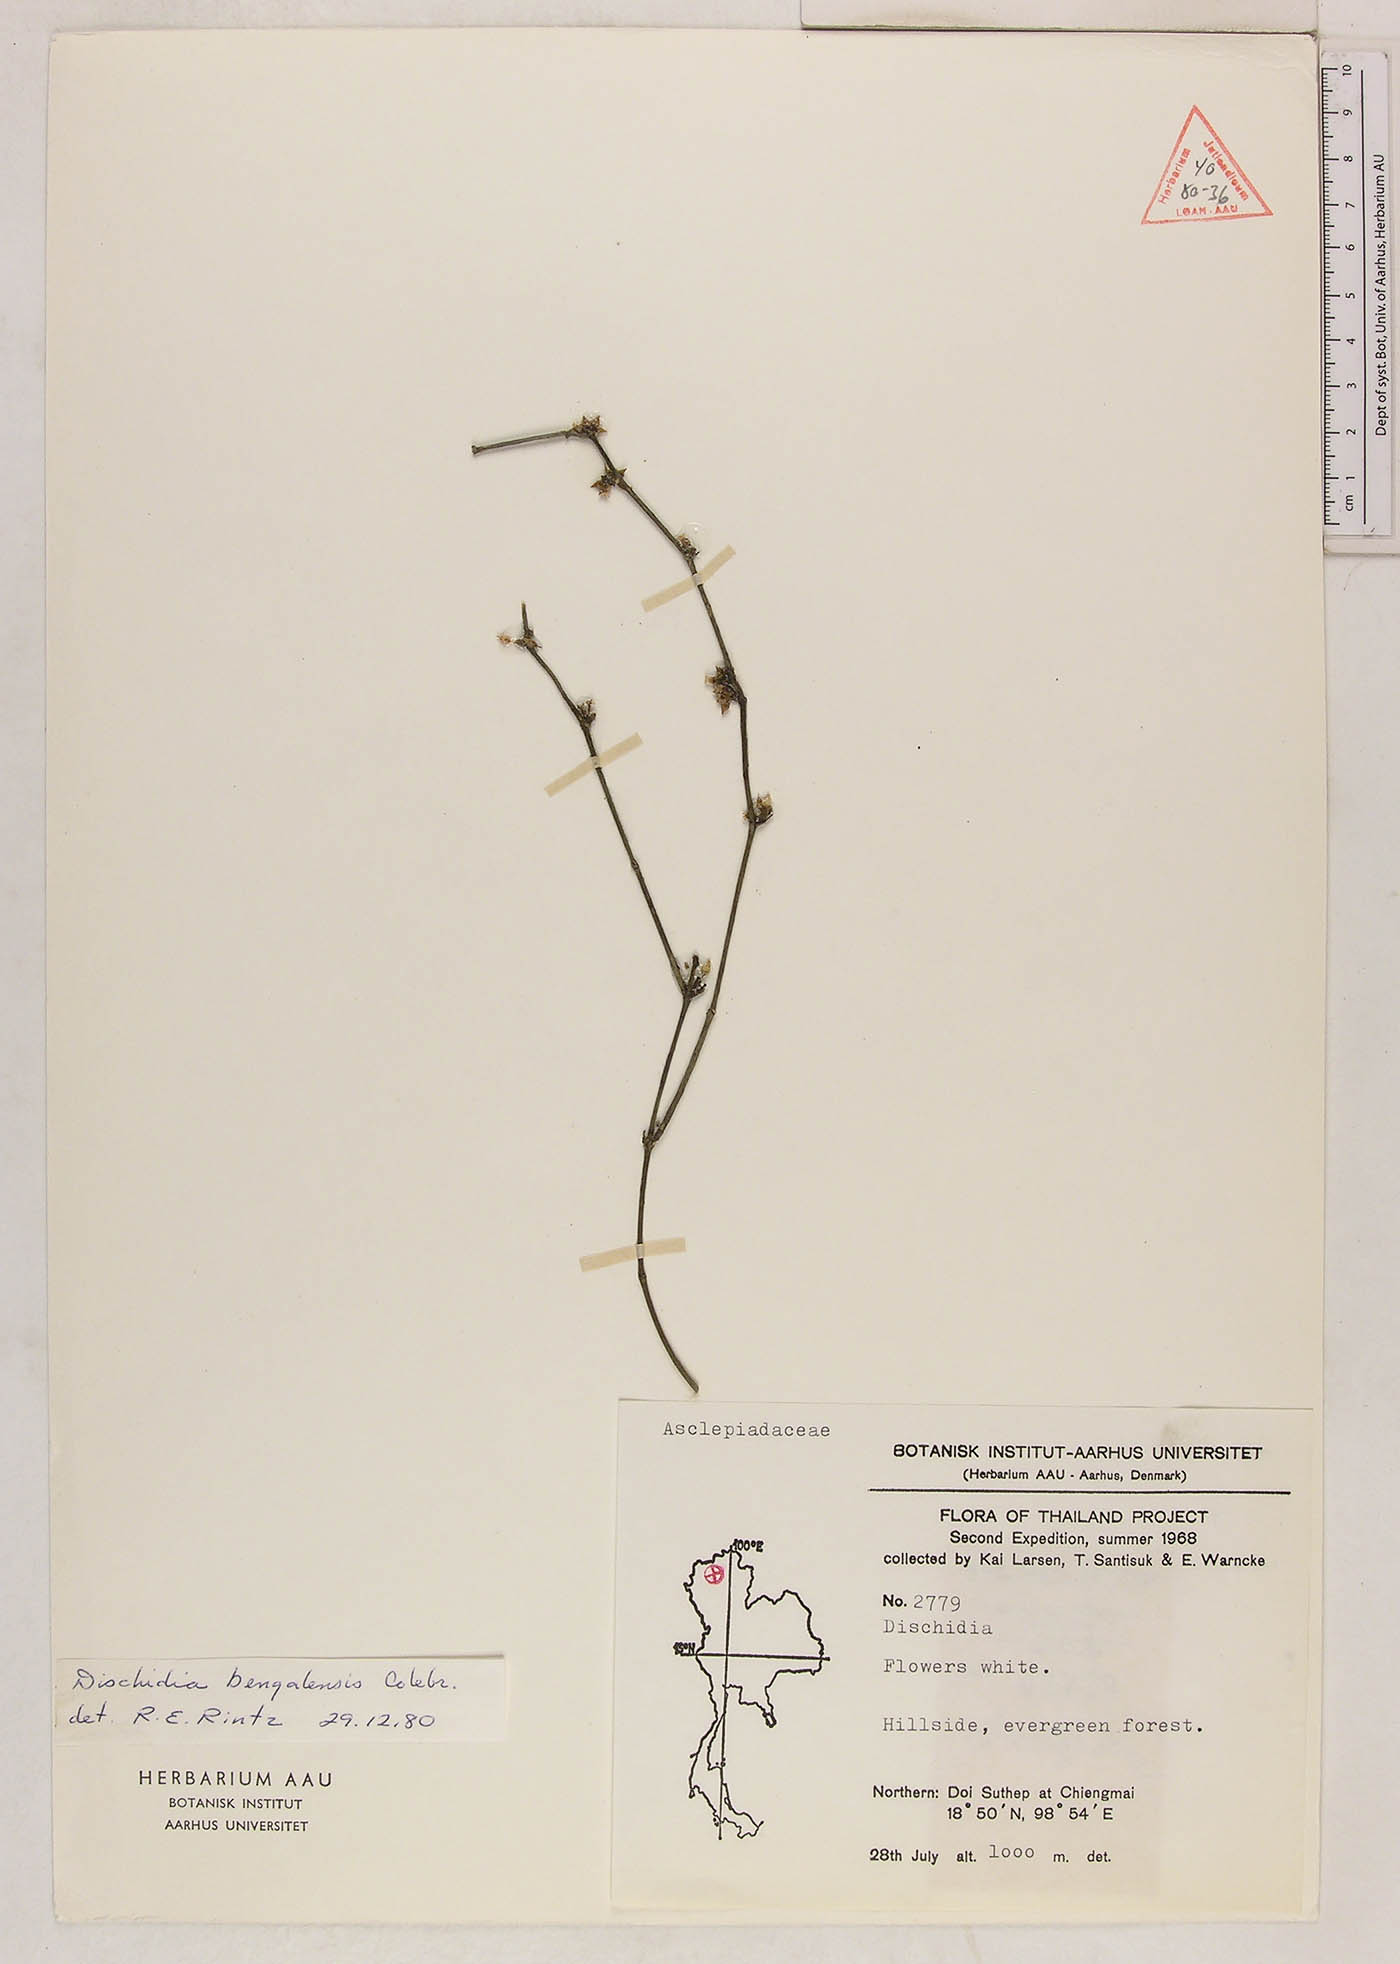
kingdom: Plantae
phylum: Tracheophyta
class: Magnoliopsida
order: Gentianales
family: Apocynaceae
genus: Dischidia
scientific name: Dischidia bengalensis
